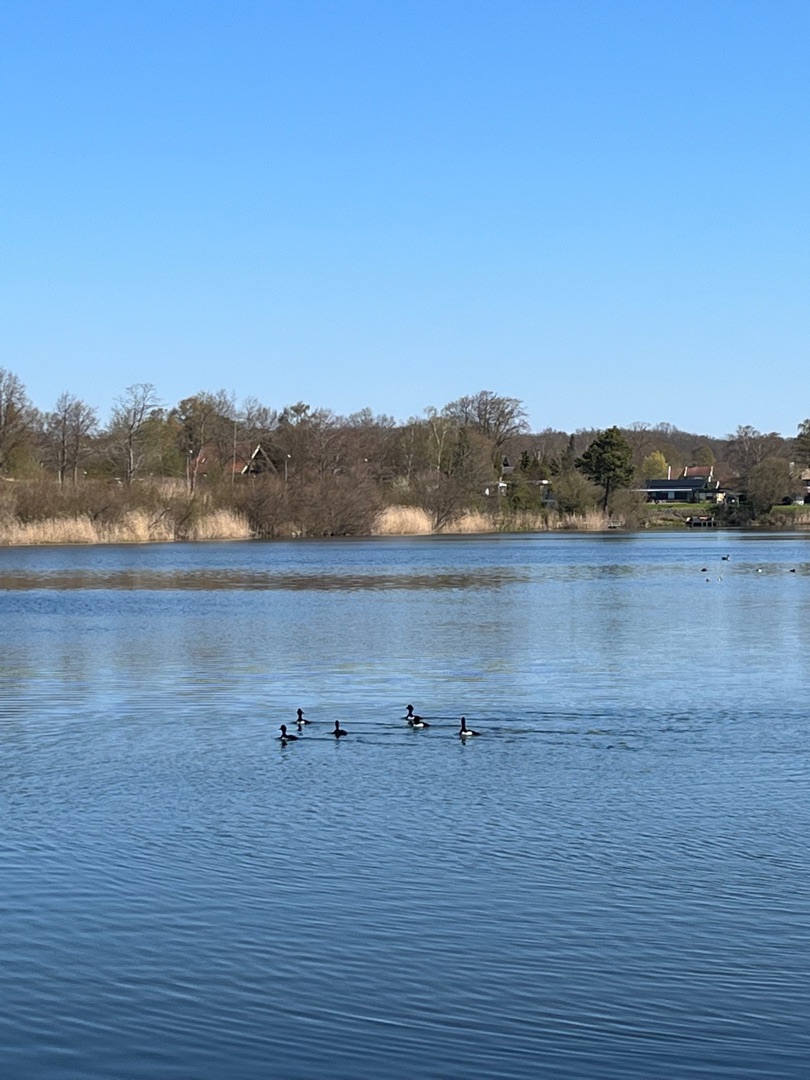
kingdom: Animalia
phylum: Chordata
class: Aves
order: Anseriformes
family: Anatidae
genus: Aythya
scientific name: Aythya fuligula
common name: Troldand
